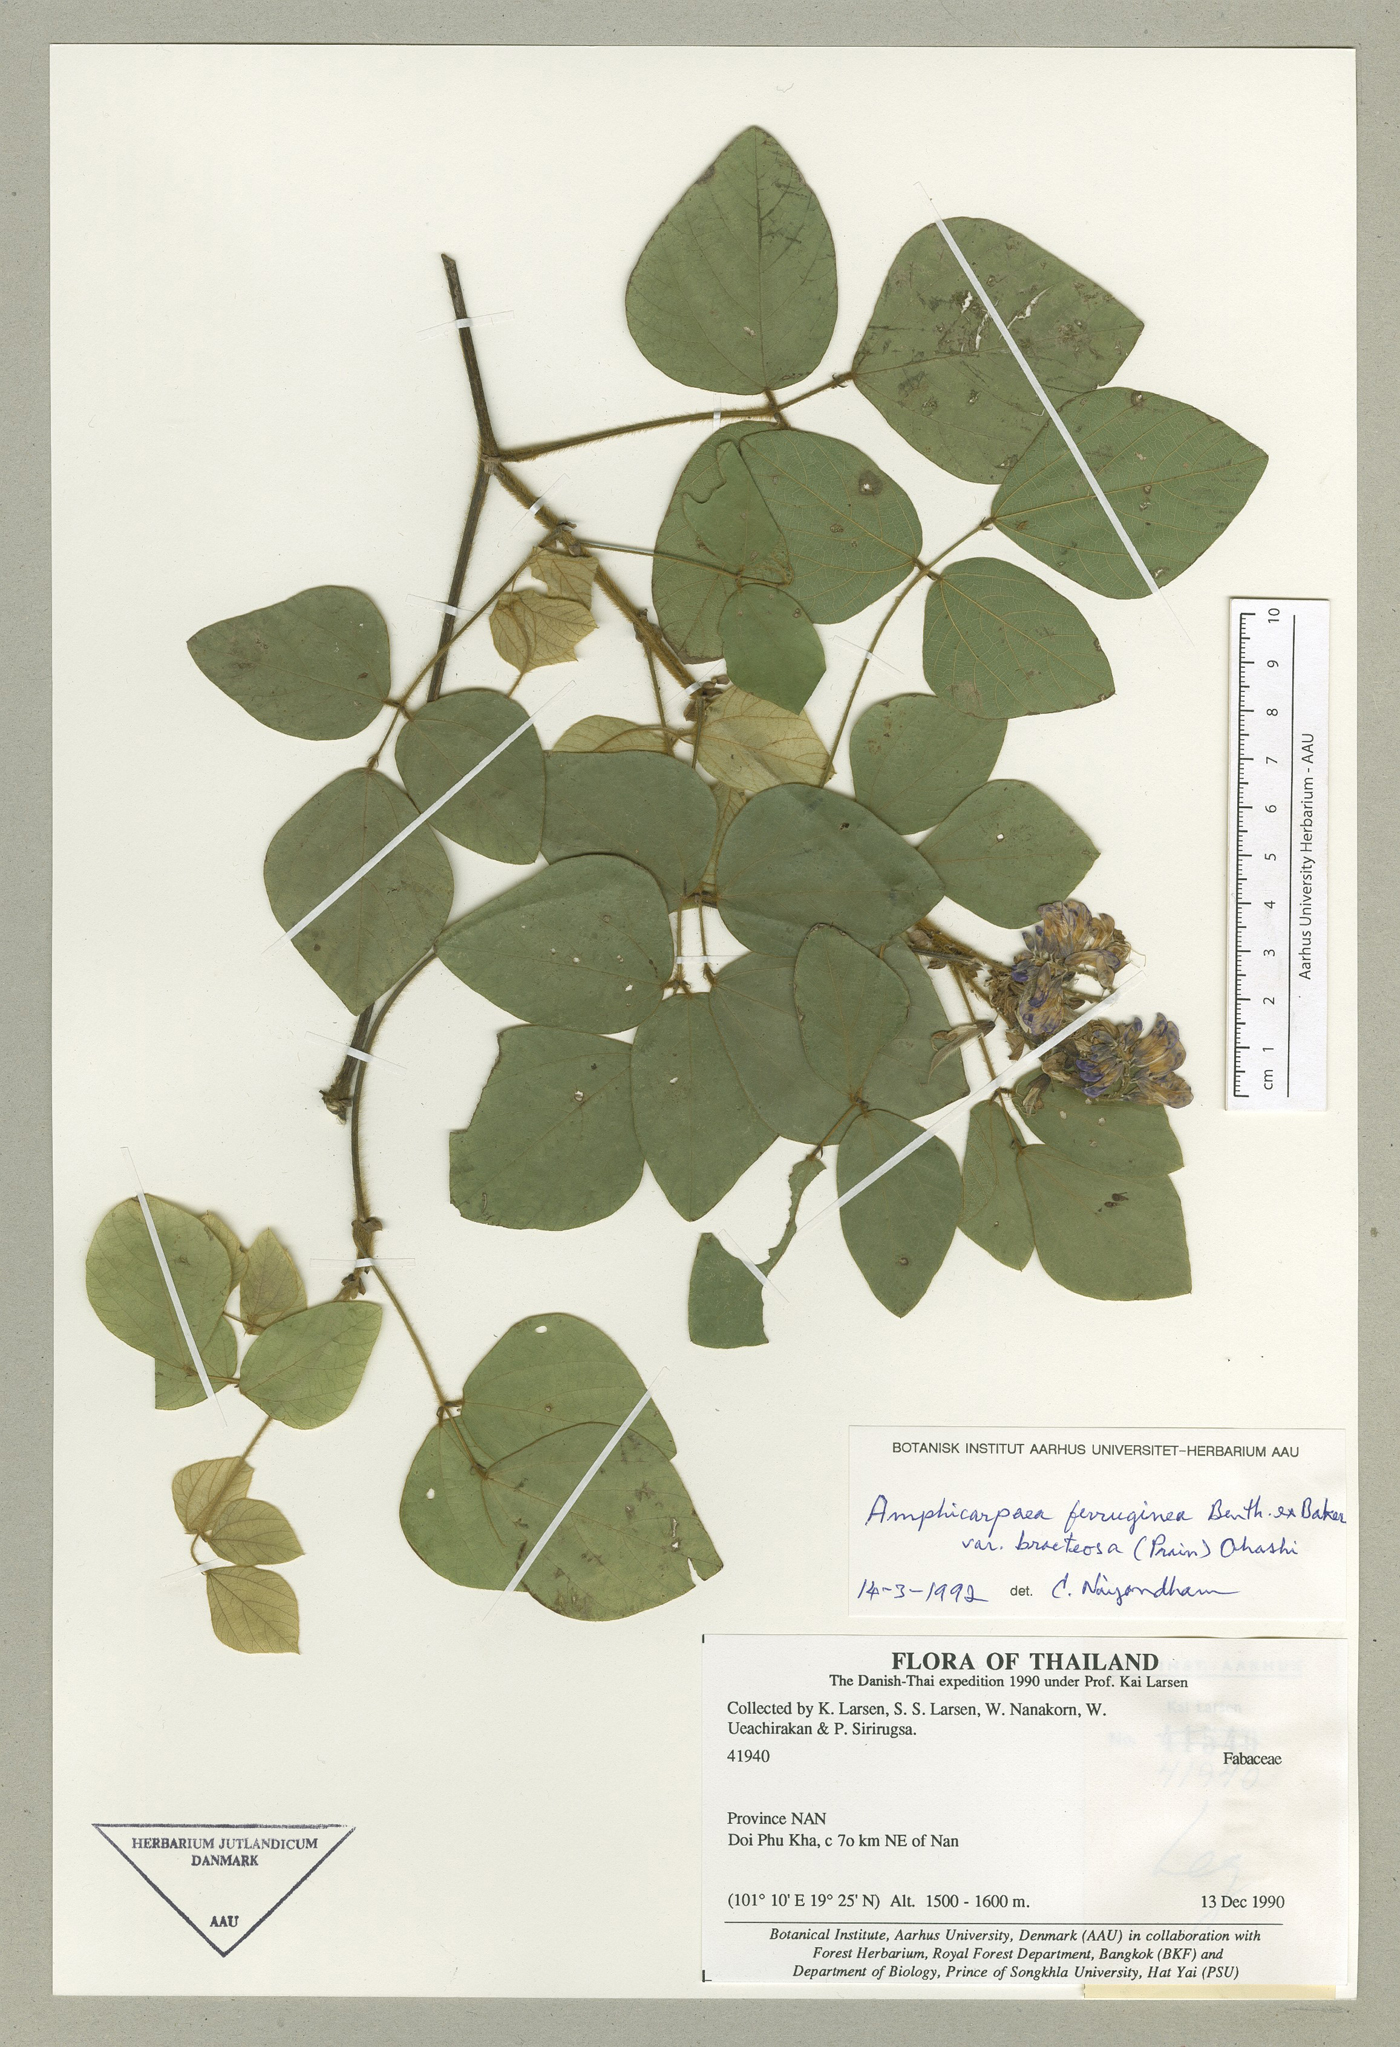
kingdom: Plantae
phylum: Tracheophyta
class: Magnoliopsida
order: Fabales
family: Fabaceae
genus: Amphicarpaea
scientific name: Amphicarpaea edgeworthii
